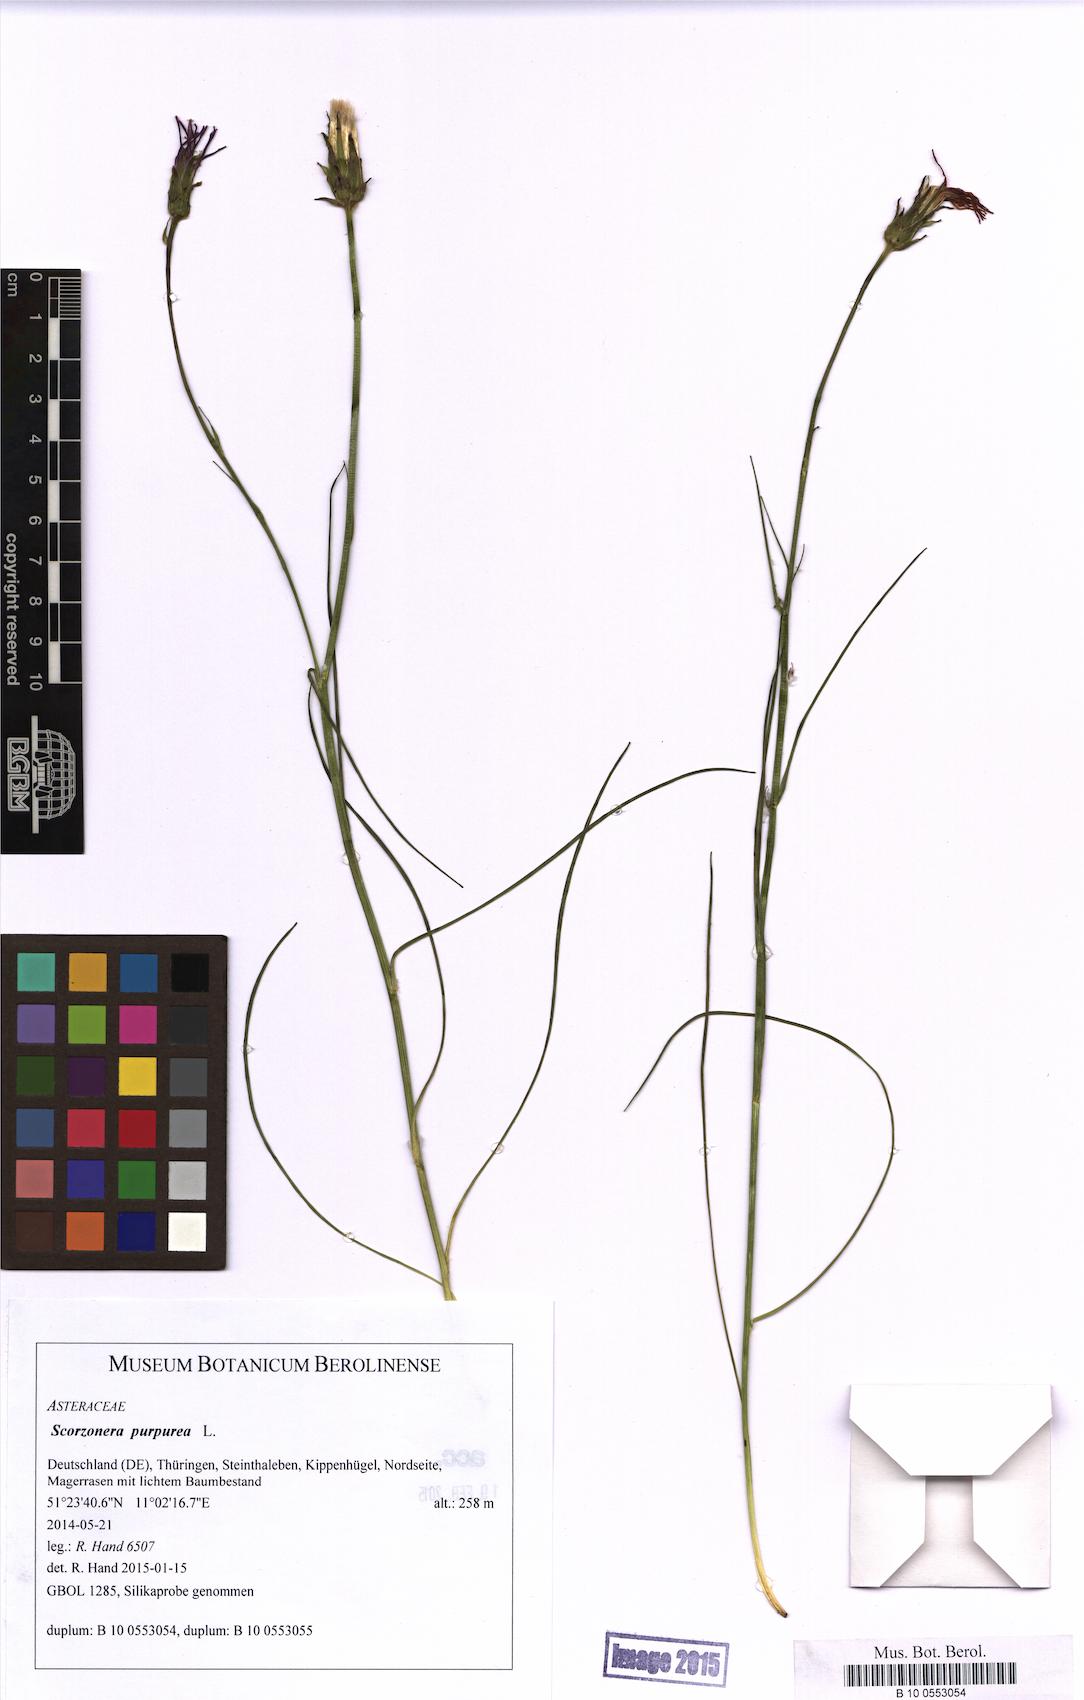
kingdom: Plantae
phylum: Tracheophyta
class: Magnoliopsida
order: Asterales
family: Asteraceae
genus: Scorzonera
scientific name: Scorzonera purpurea
